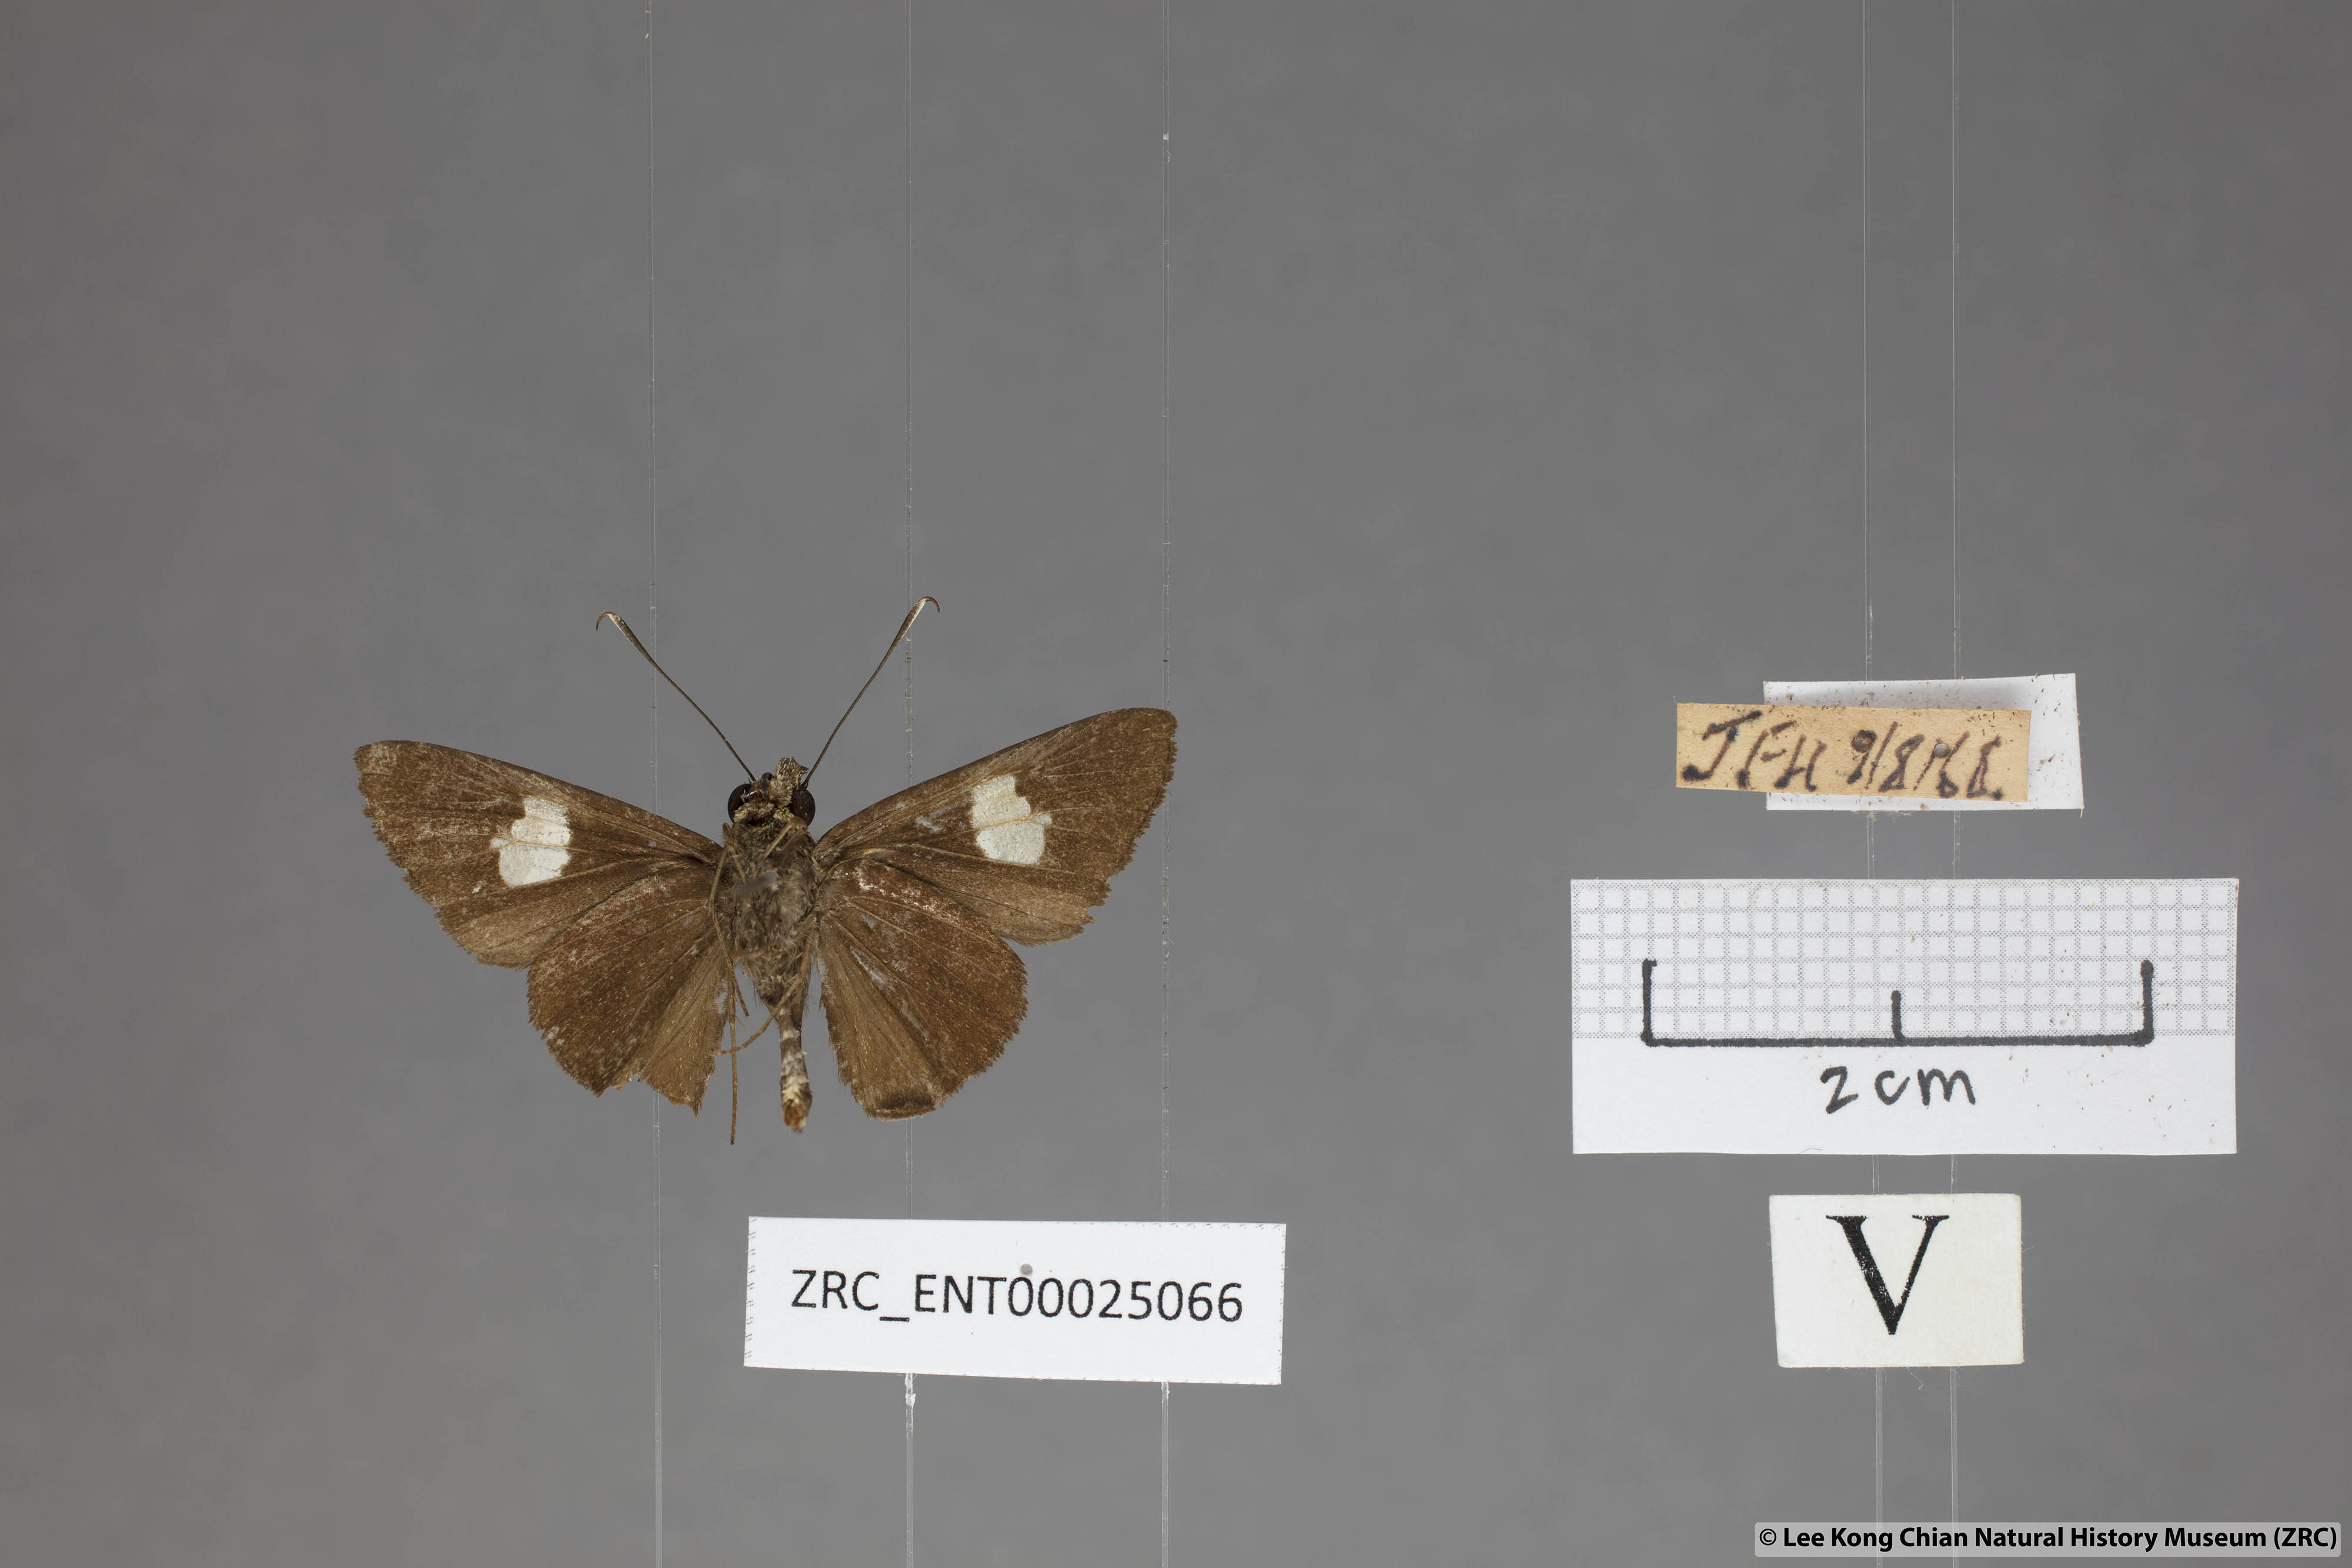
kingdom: Animalia
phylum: Arthropoda
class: Insecta
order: Lepidoptera
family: Hesperiidae
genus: Oerane
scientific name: Oerane microthyrus
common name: White club flitter
